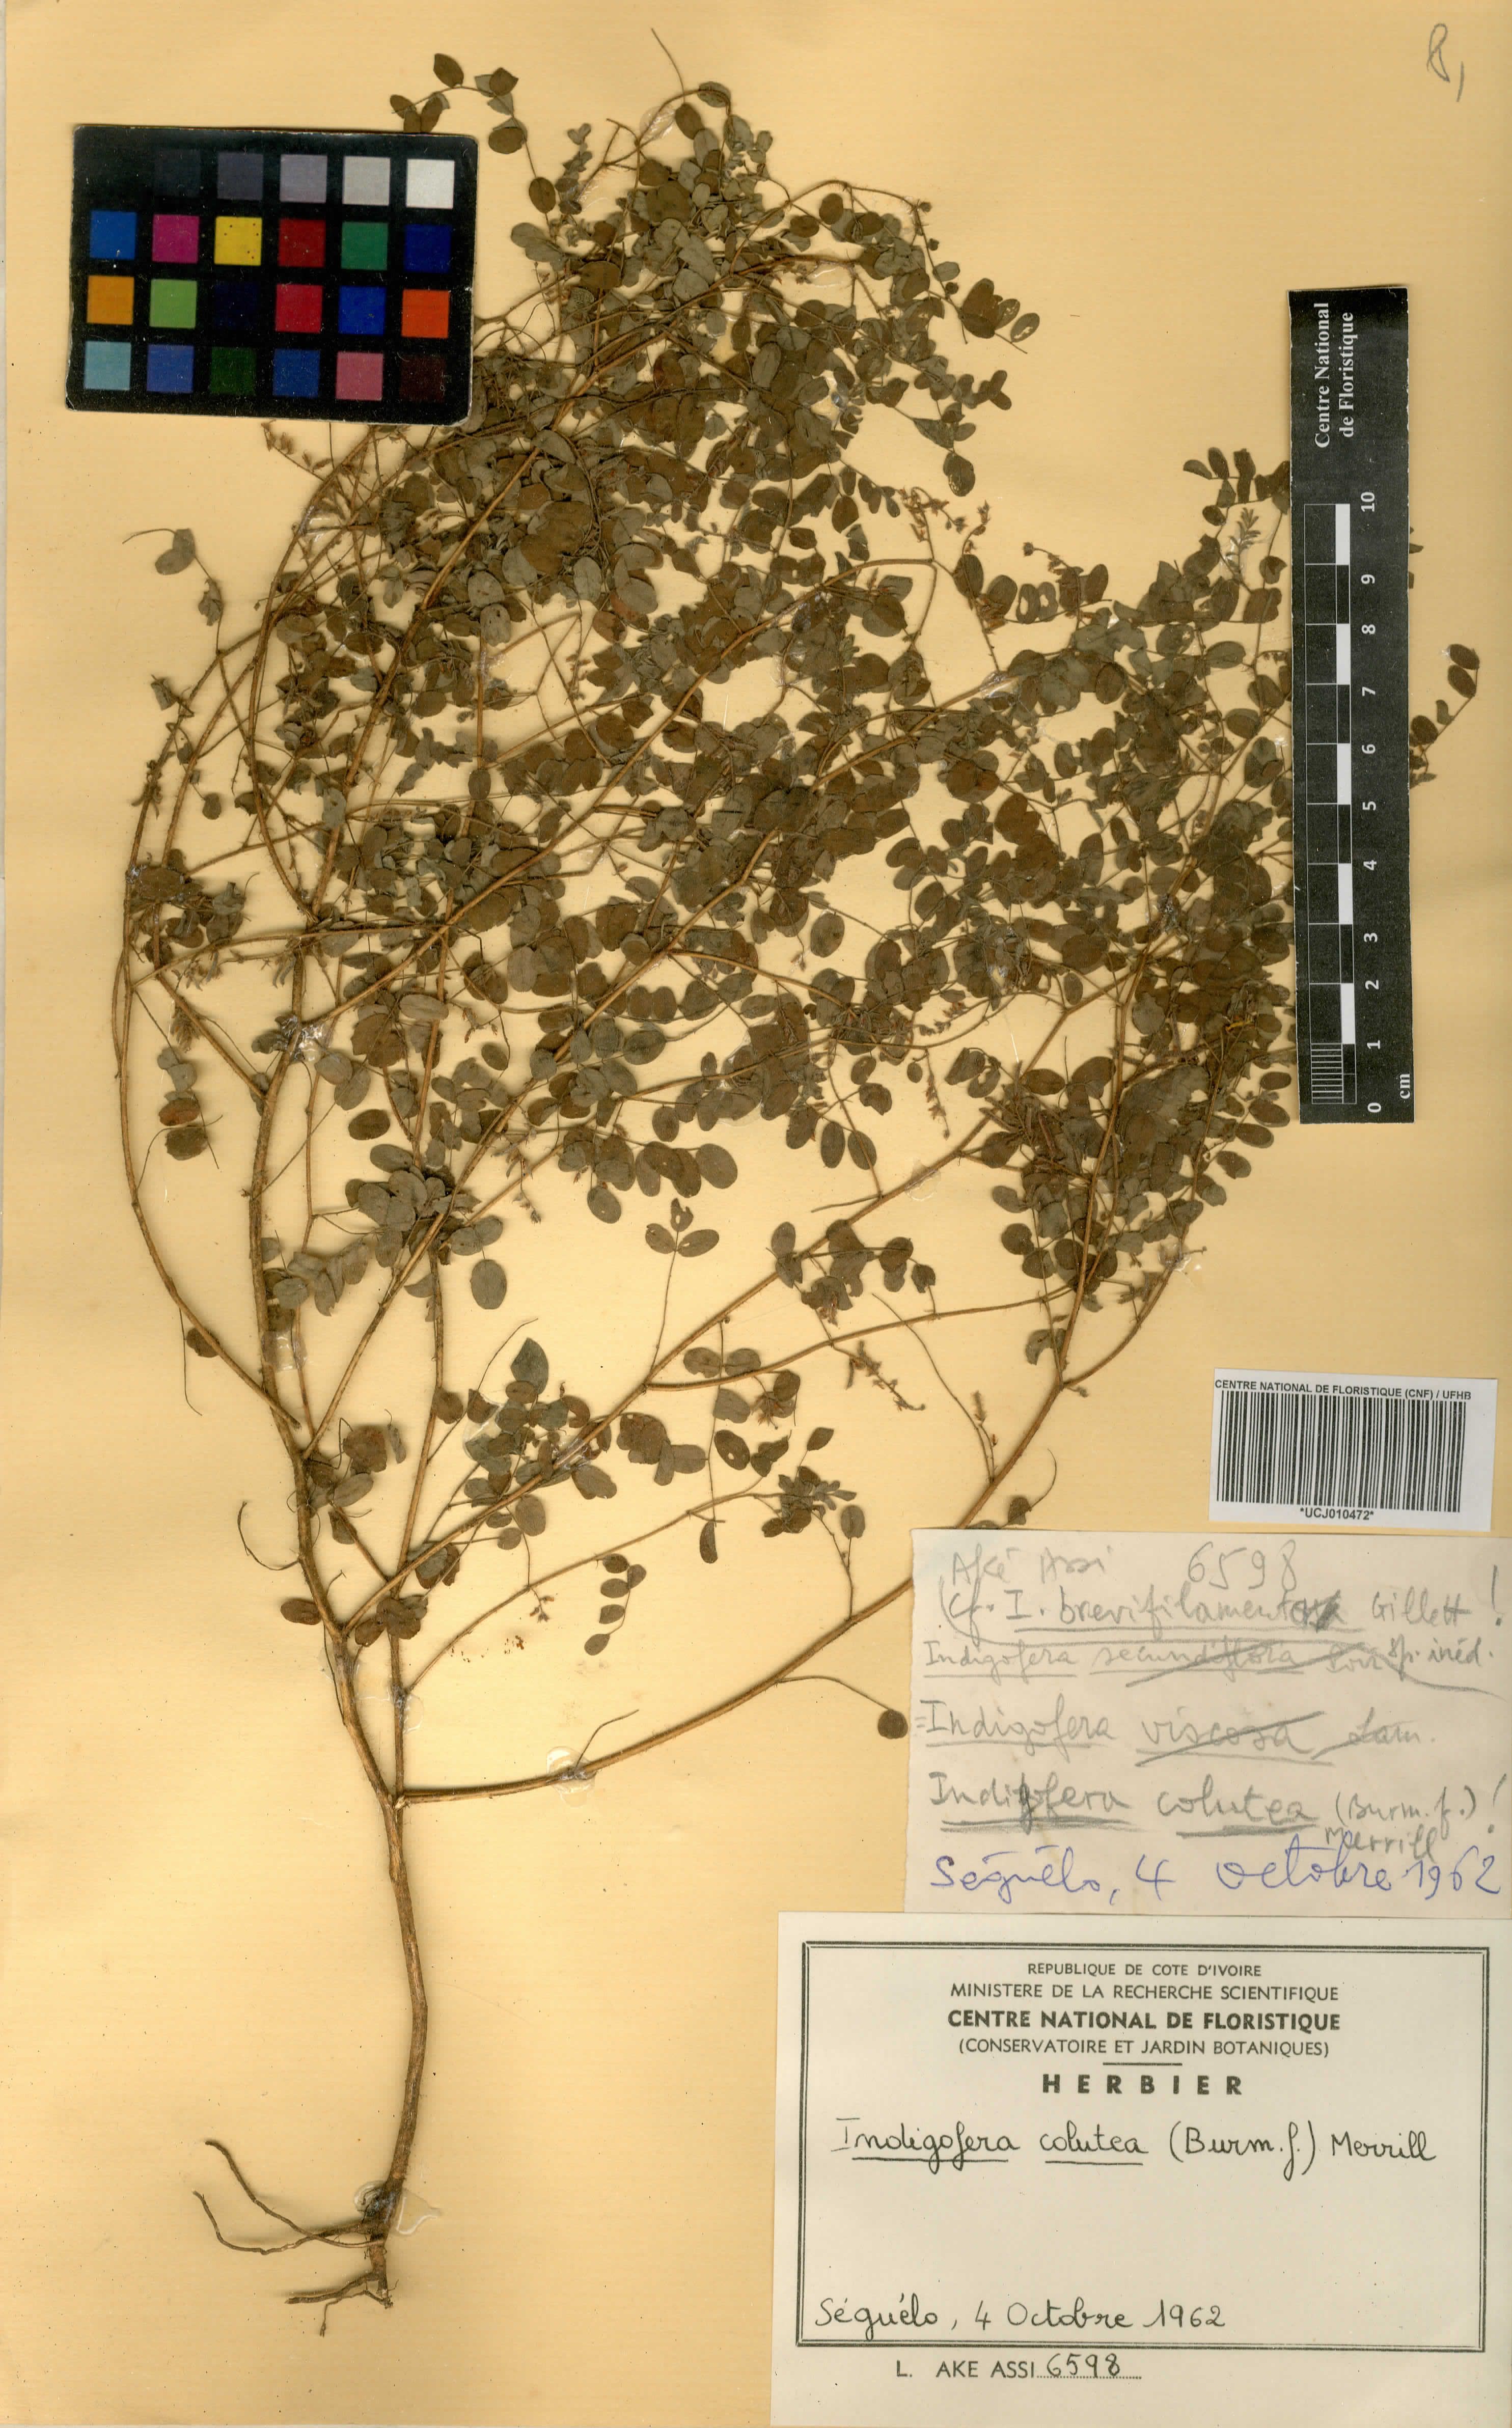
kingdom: Plantae
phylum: Tracheophyta
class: Magnoliopsida
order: Fabales
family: Fabaceae
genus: Indigofera
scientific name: Indigofera colutea
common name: Rusty indigo
